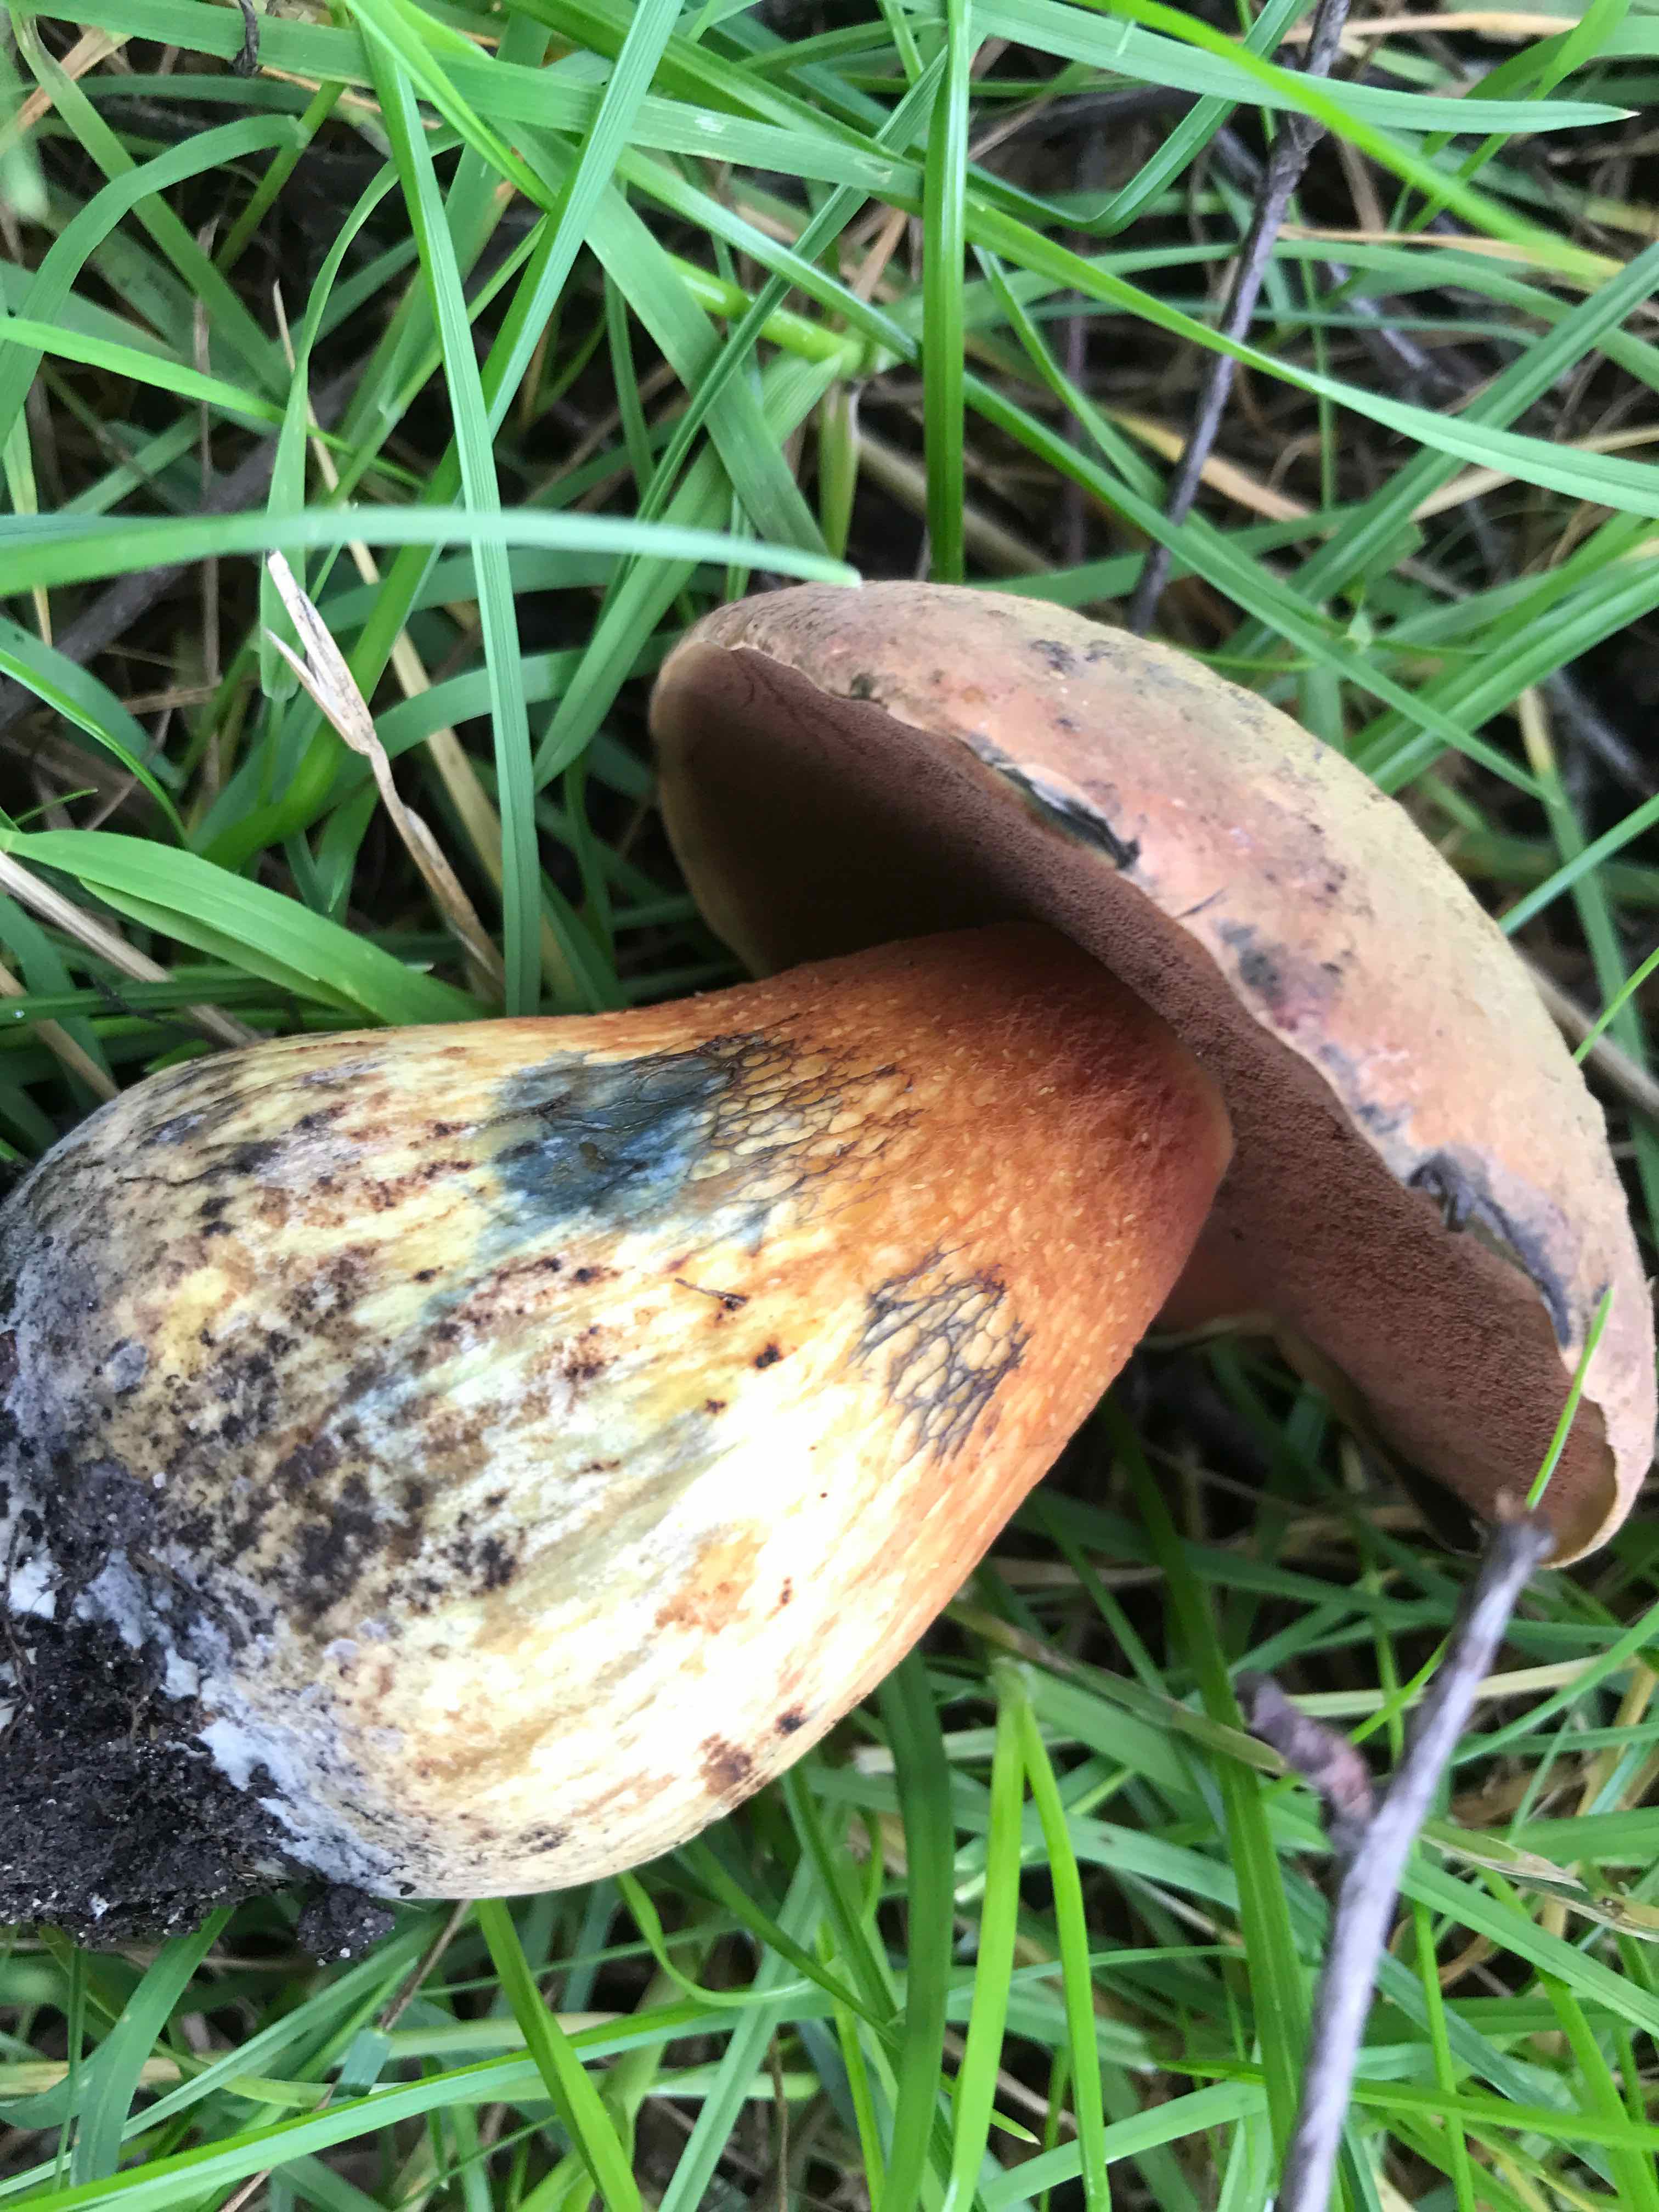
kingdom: Fungi
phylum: Basidiomycota
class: Agaricomycetes
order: Boletales
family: Boletaceae
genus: Suillellus
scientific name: Suillellus luridus
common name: netstokket indigorørhat
